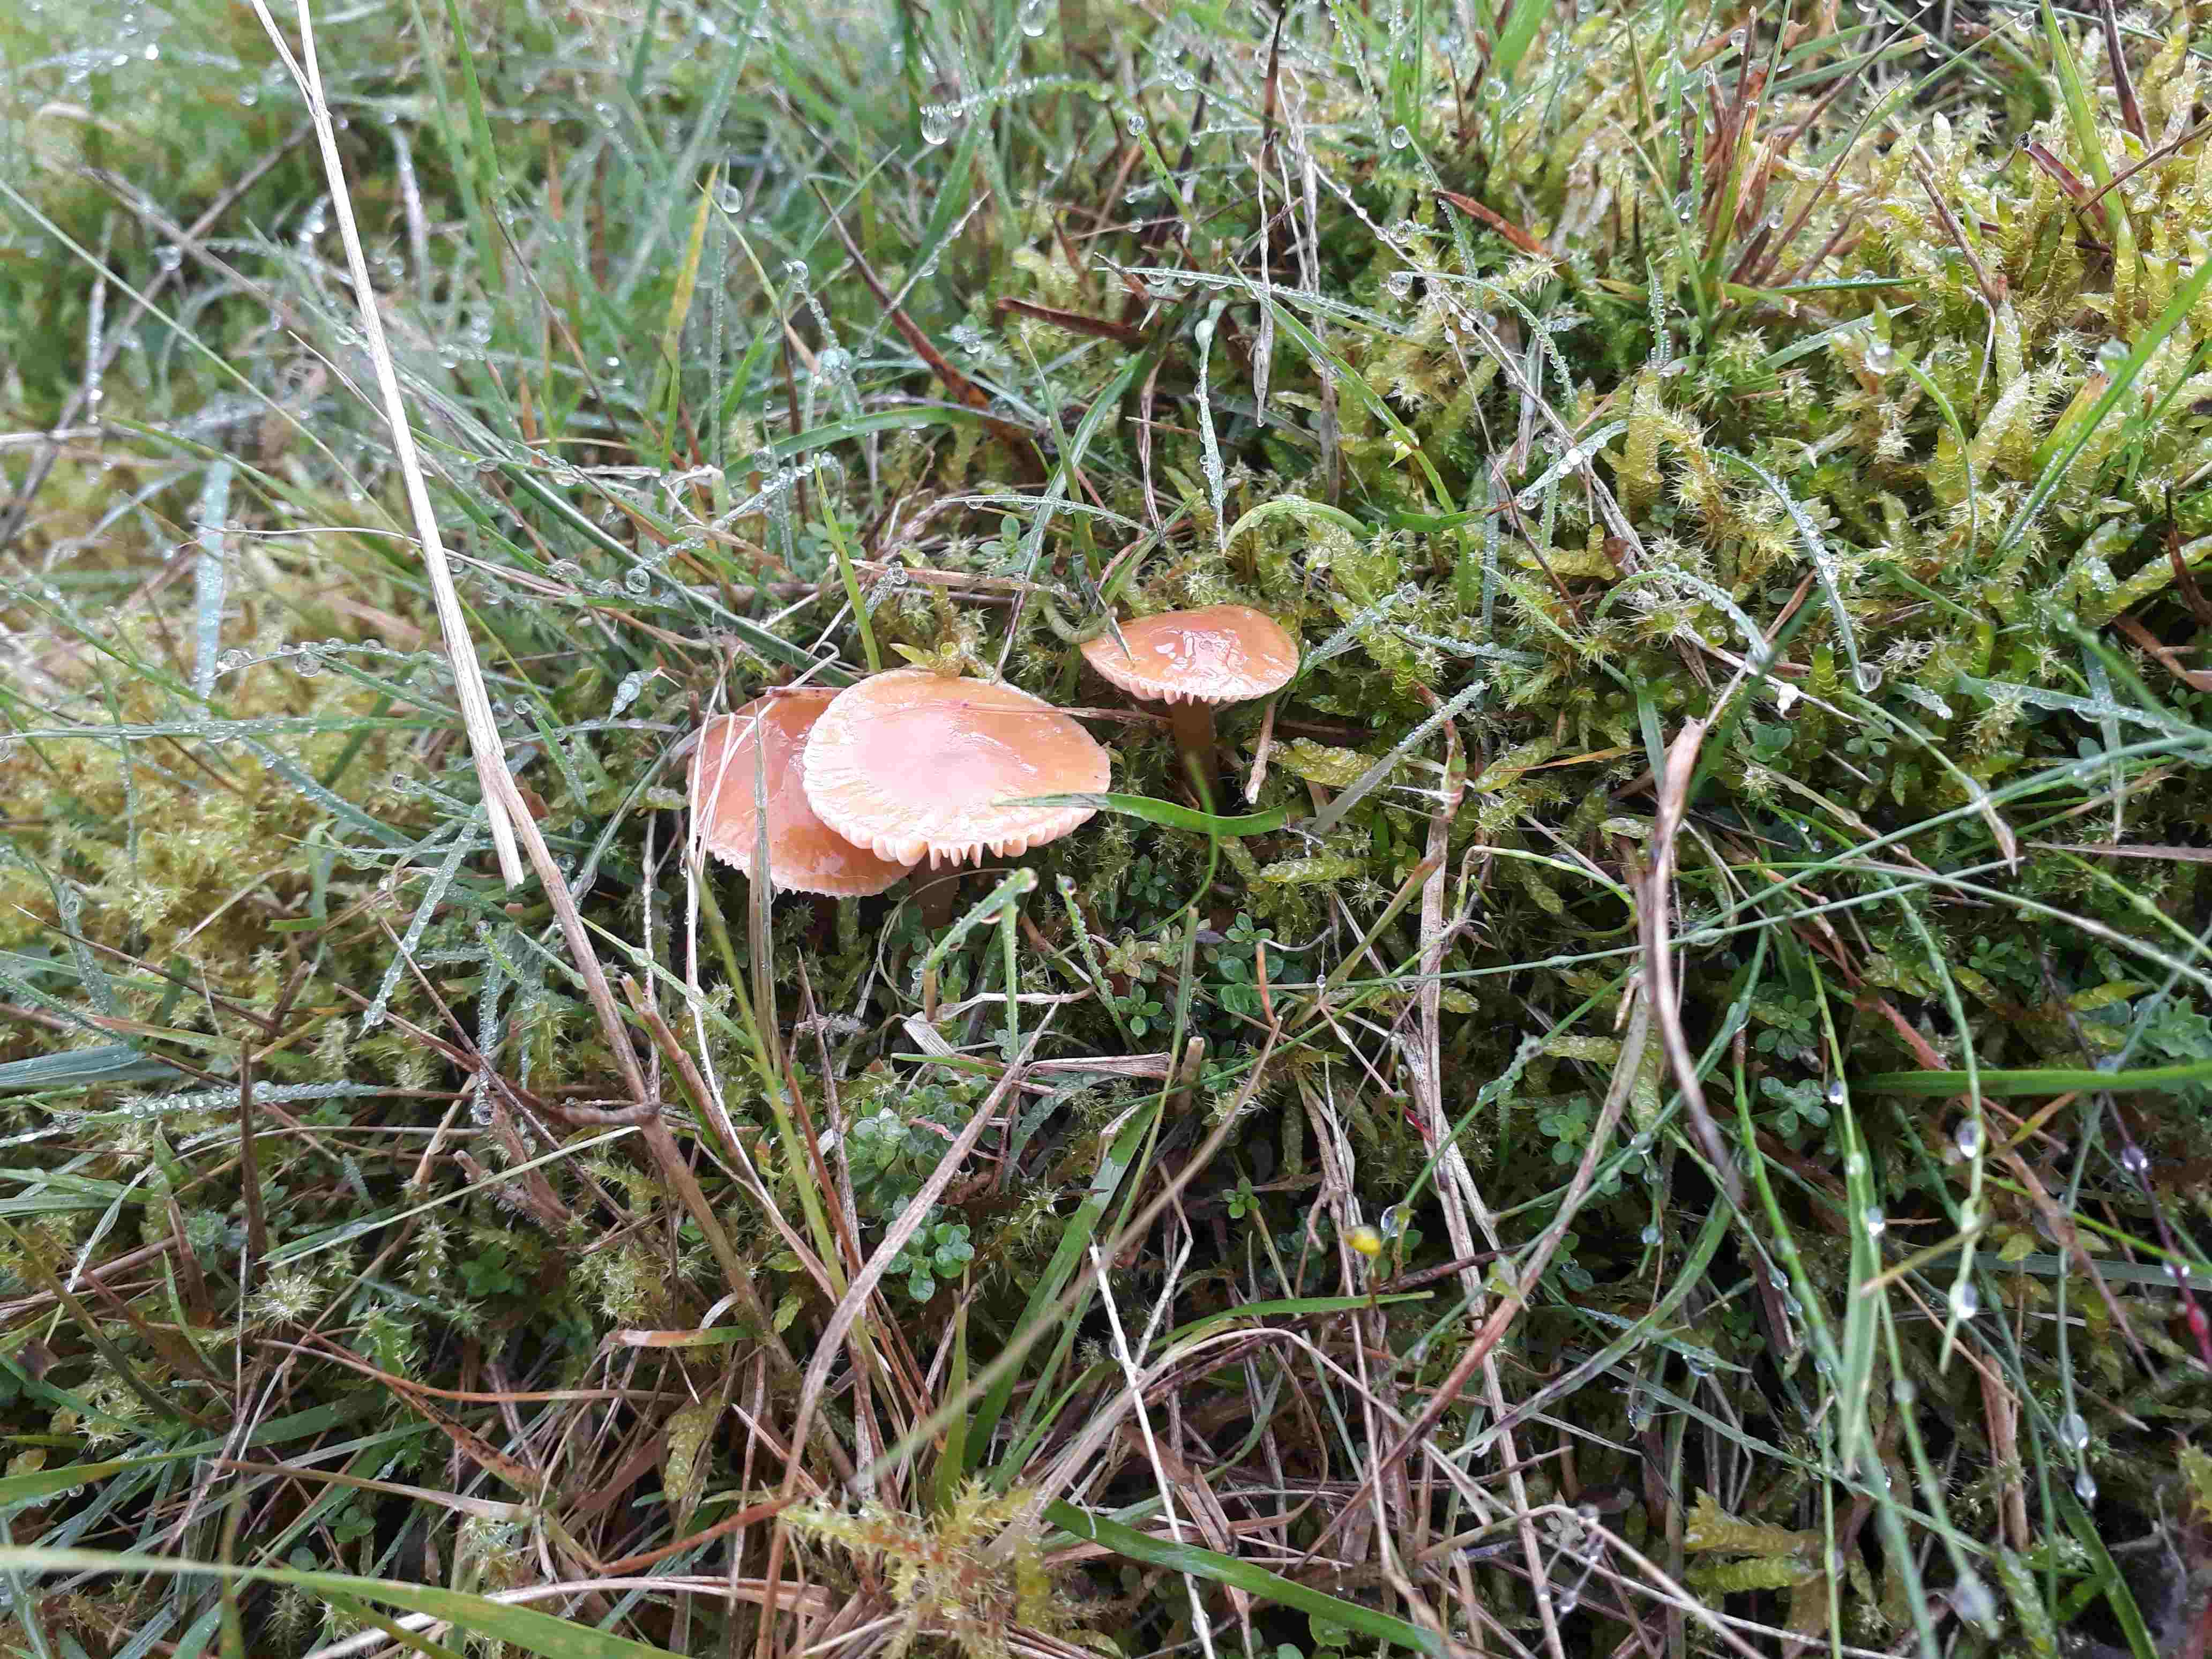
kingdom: Fungi
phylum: Basidiomycota
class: Agaricomycetes
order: Agaricales
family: Hygrophoraceae
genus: Gliophorus
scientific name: Gliophorus laetus
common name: brusk-vokshat
